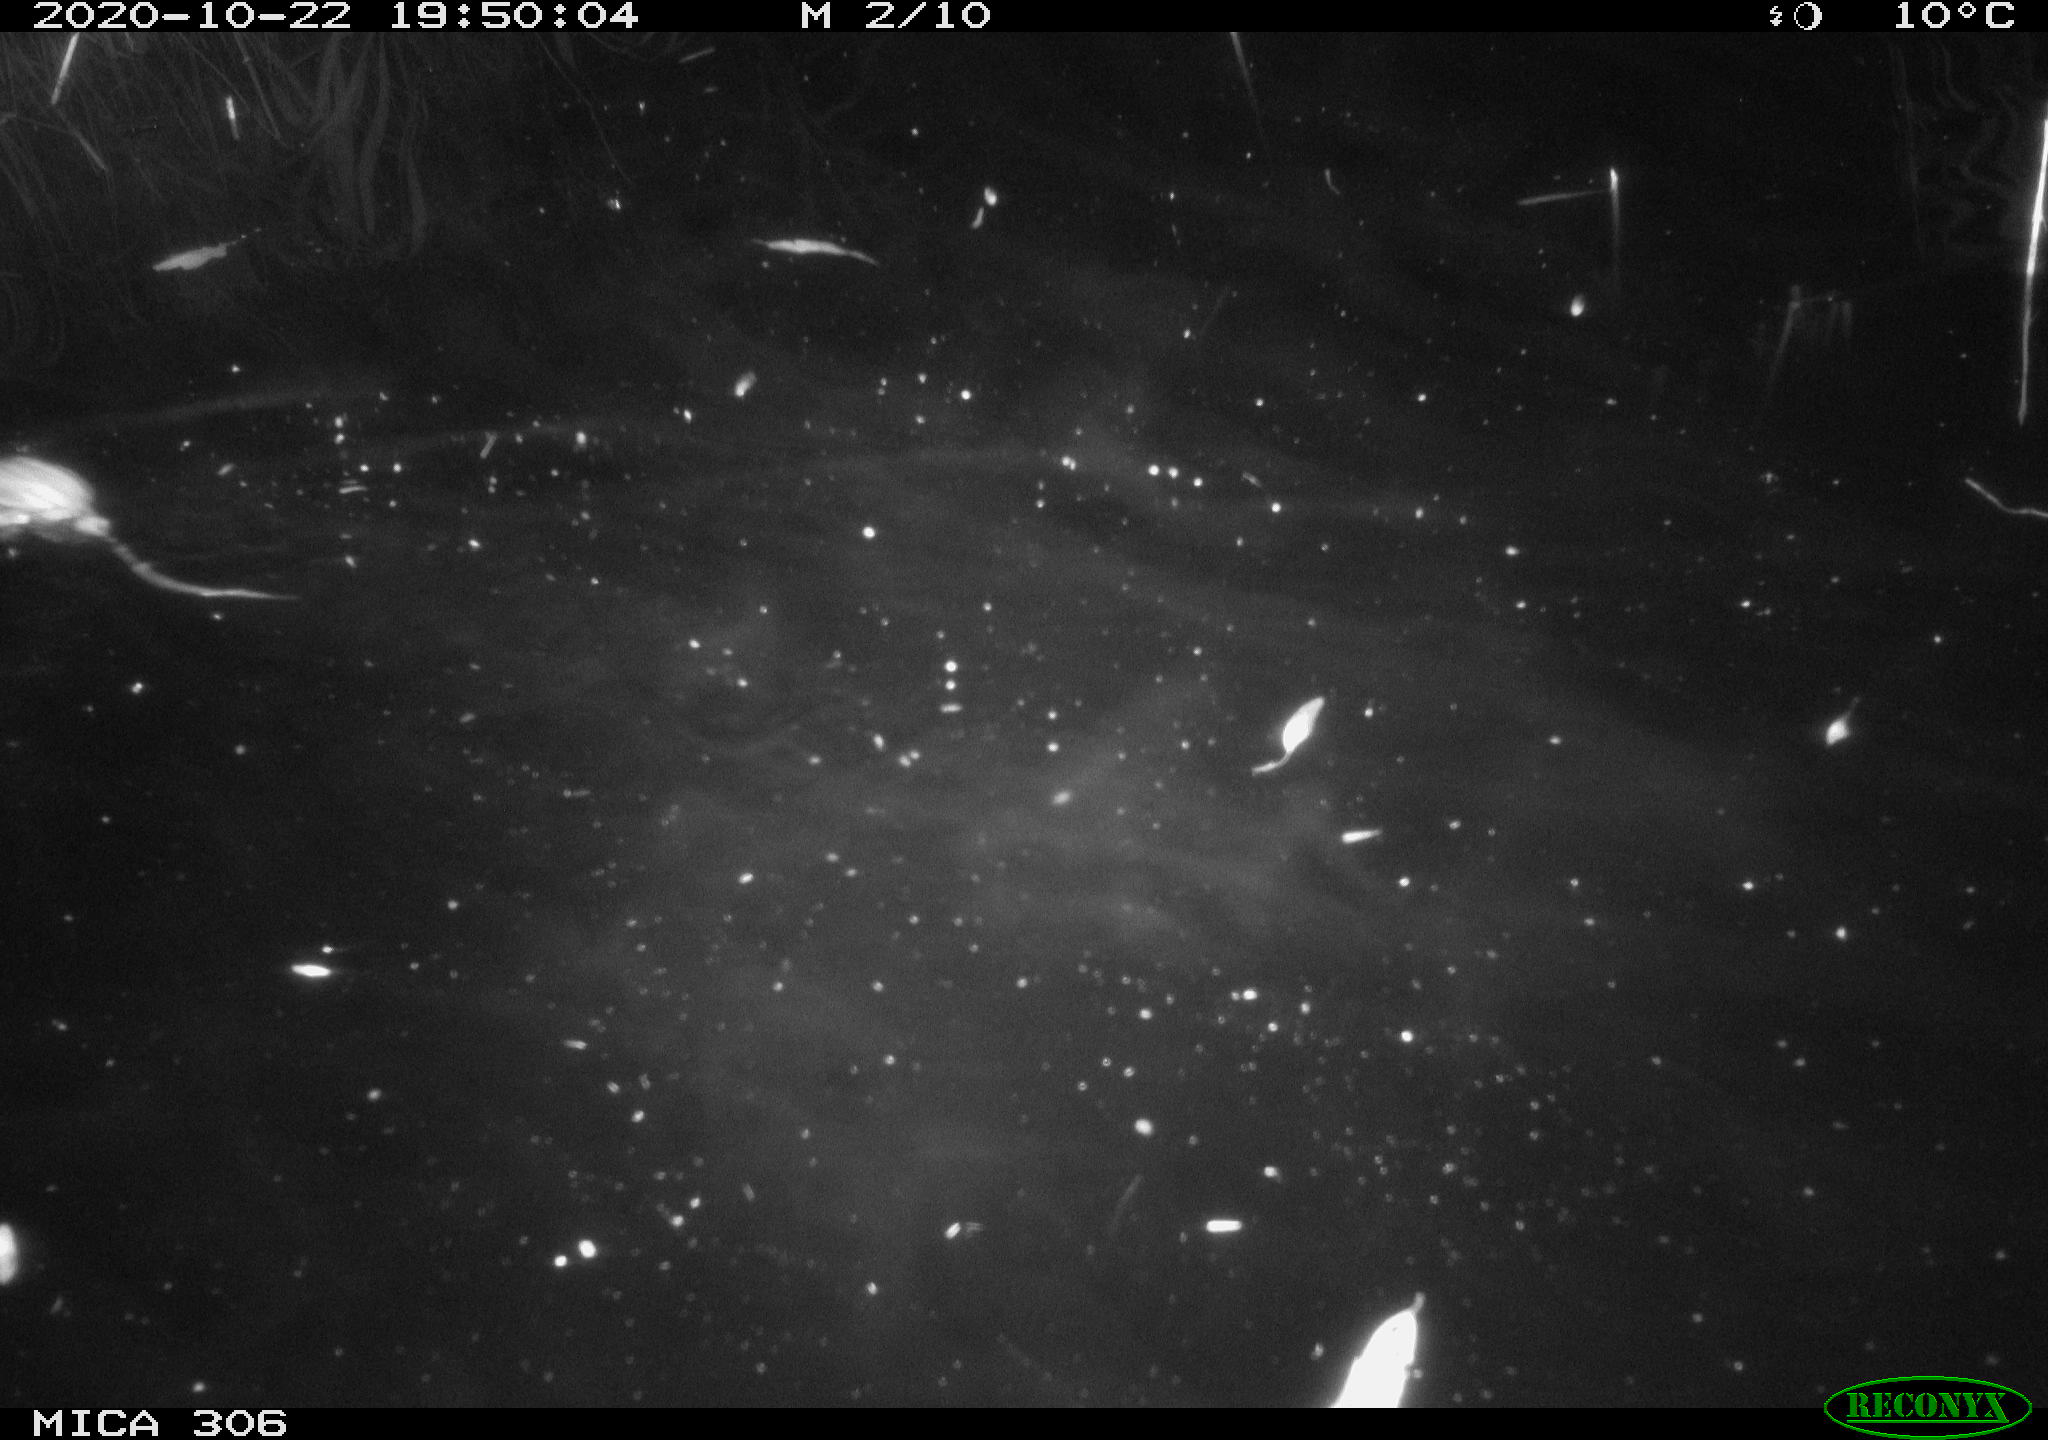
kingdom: Animalia
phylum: Chordata
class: Mammalia
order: Rodentia
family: Muridae
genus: Rattus
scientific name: Rattus norvegicus
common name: Brown rat
